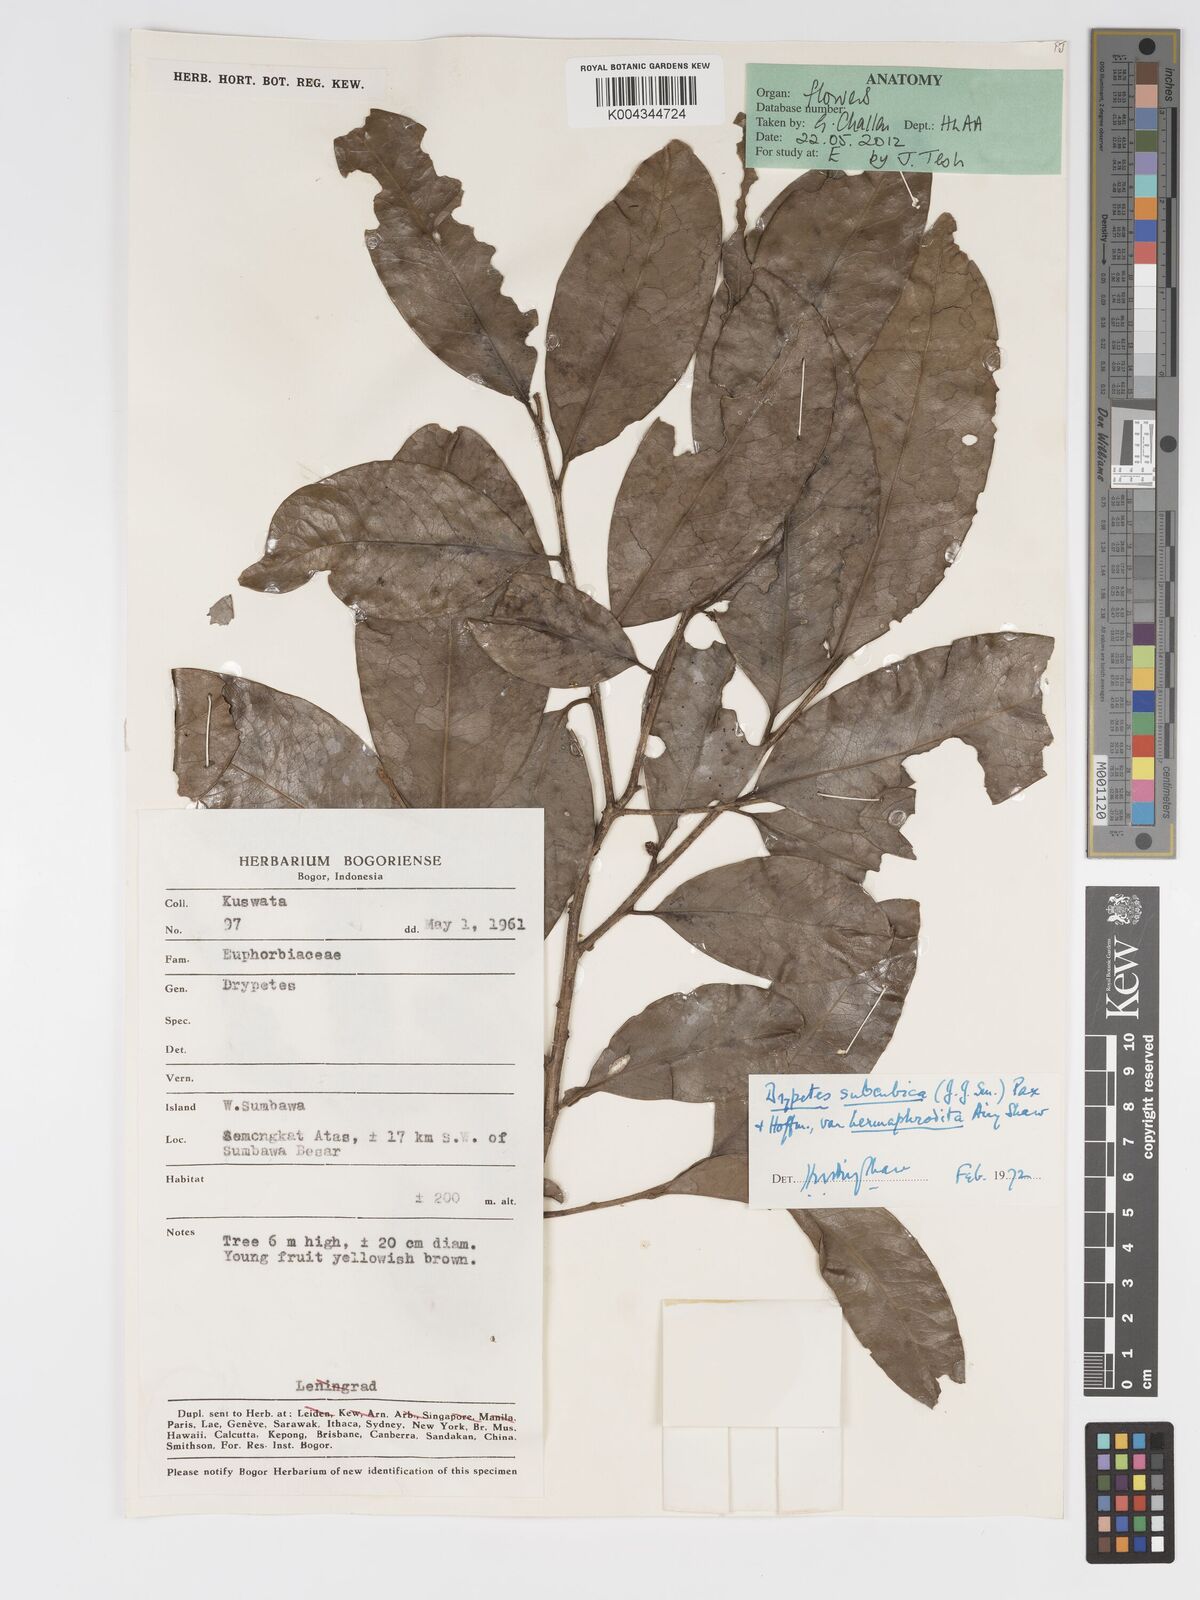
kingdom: Plantae
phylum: Tracheophyta
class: Magnoliopsida
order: Malpighiales
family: Putranjivaceae
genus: Drypetes
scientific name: Drypetes subcubica
